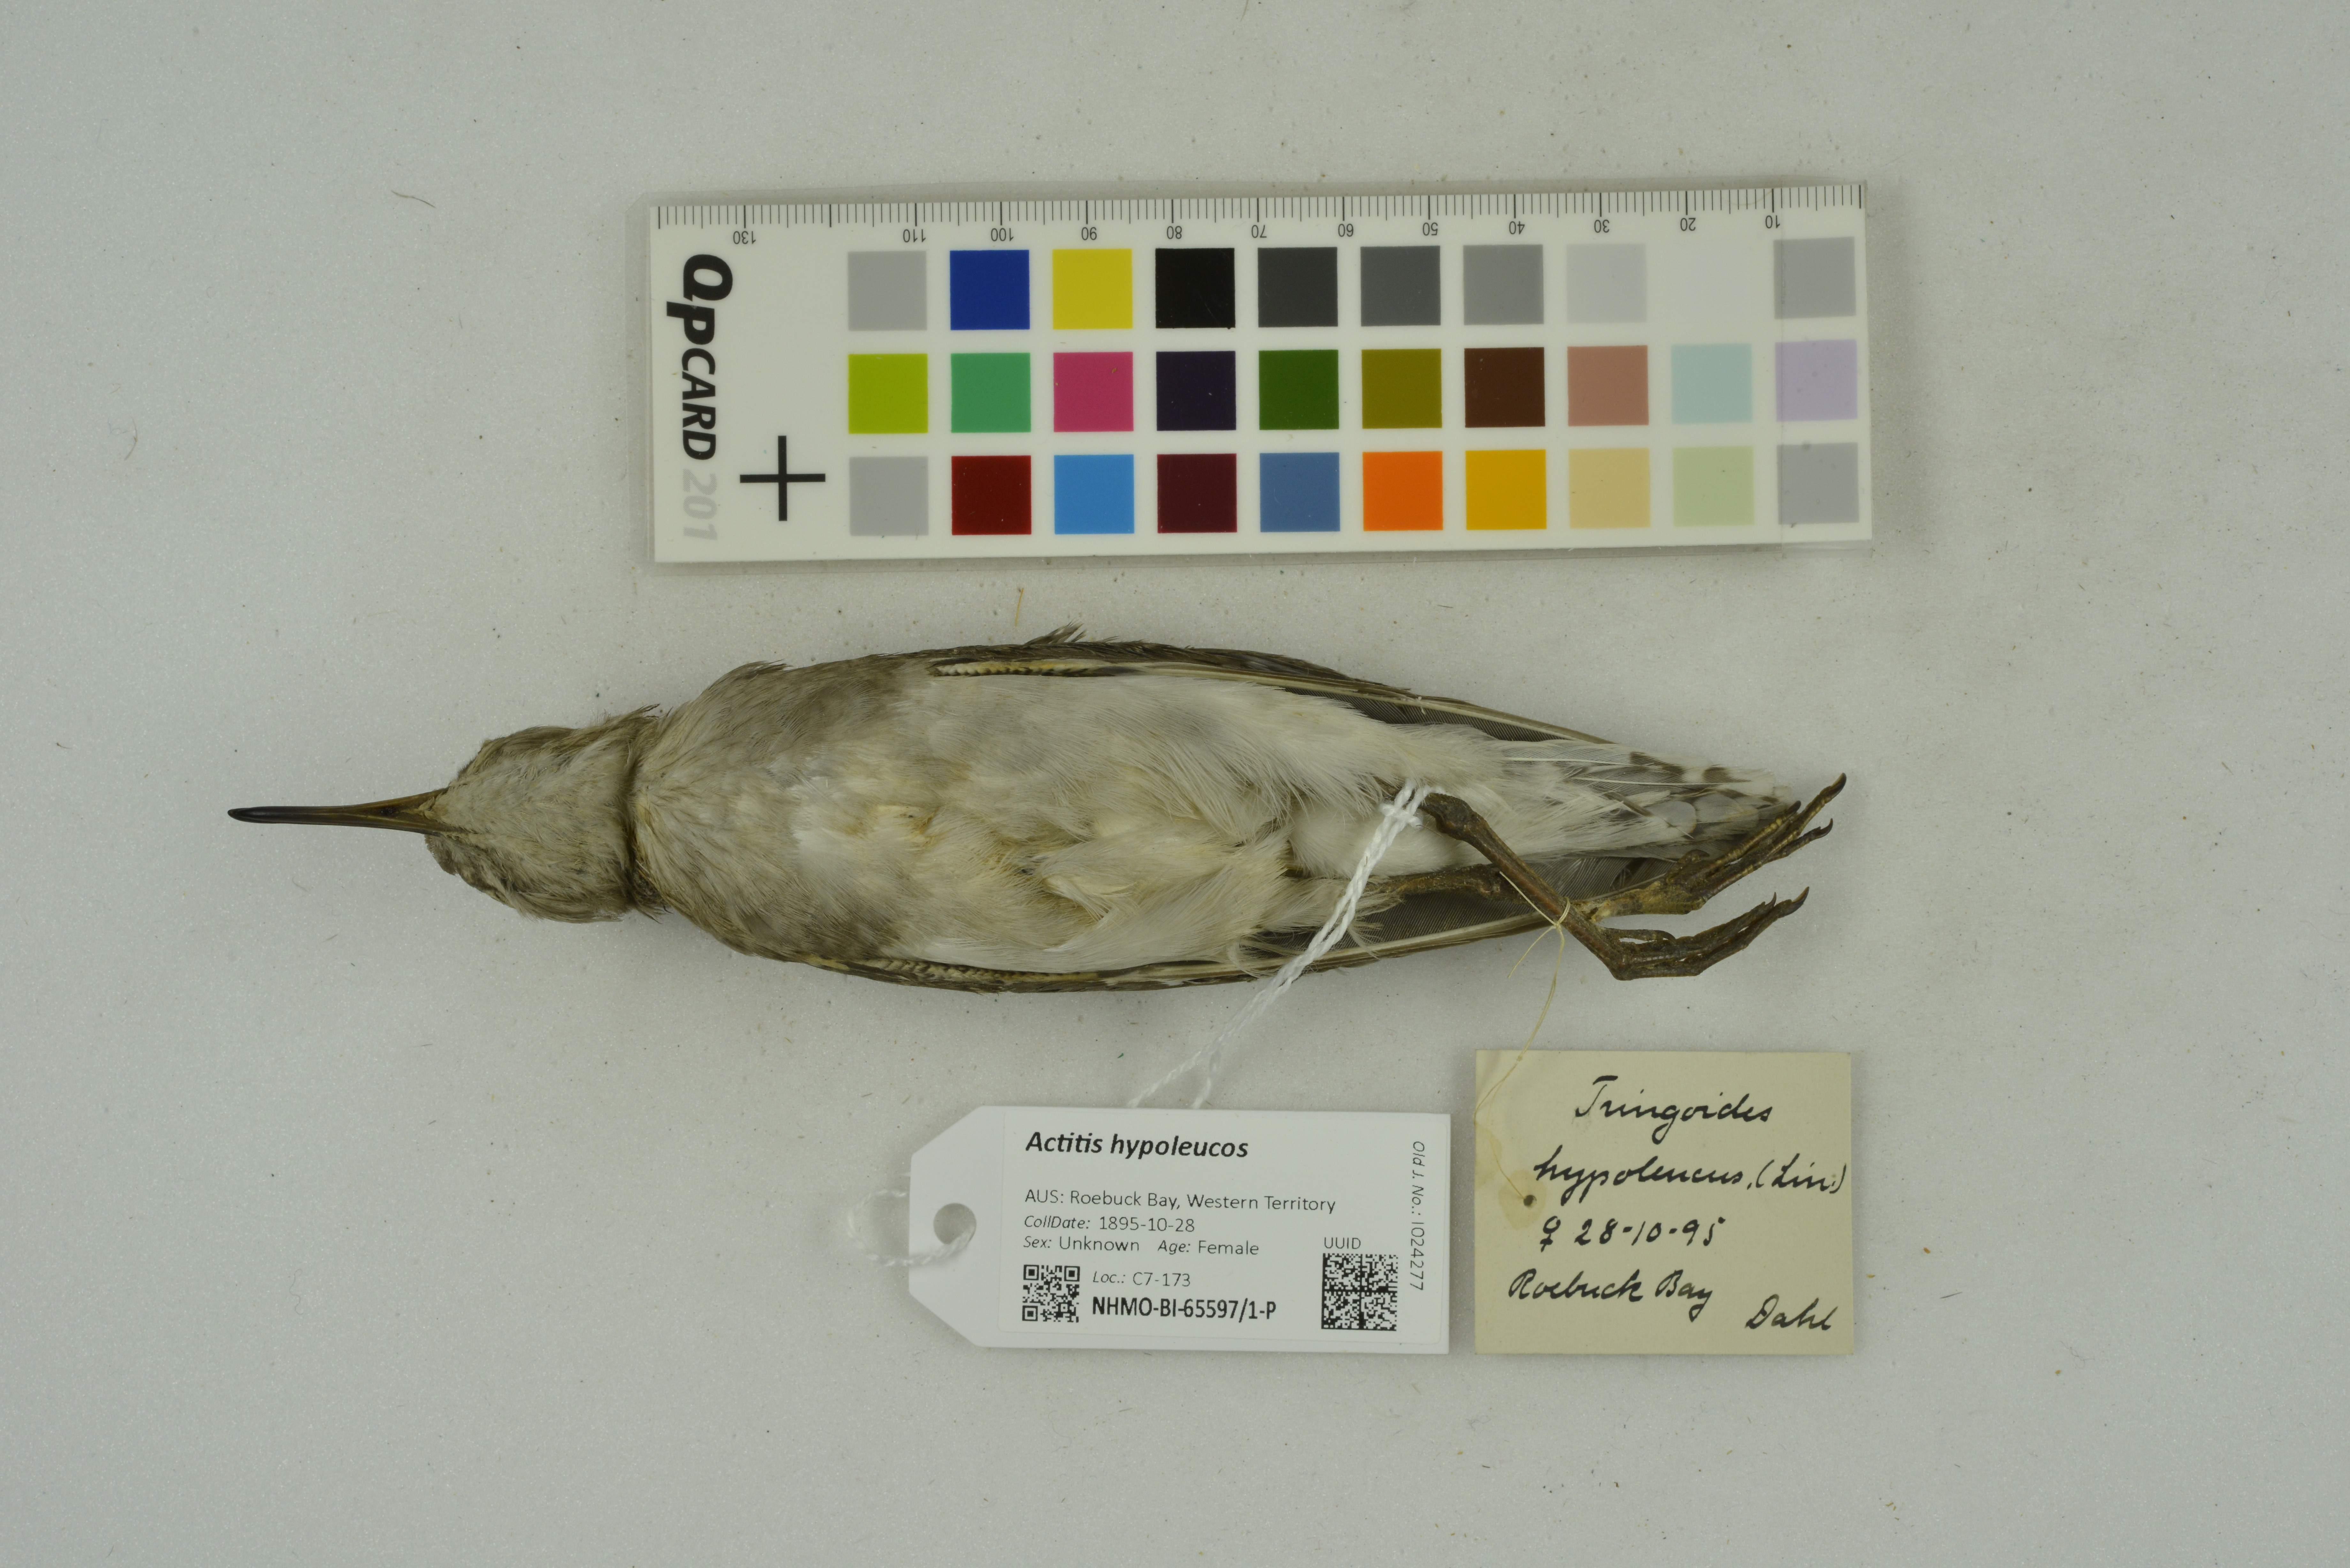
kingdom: Animalia
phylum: Chordata
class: Aves
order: Charadriiformes
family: Scolopacidae
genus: Actitis
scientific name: Actitis hypoleucos
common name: Common sandpiper
